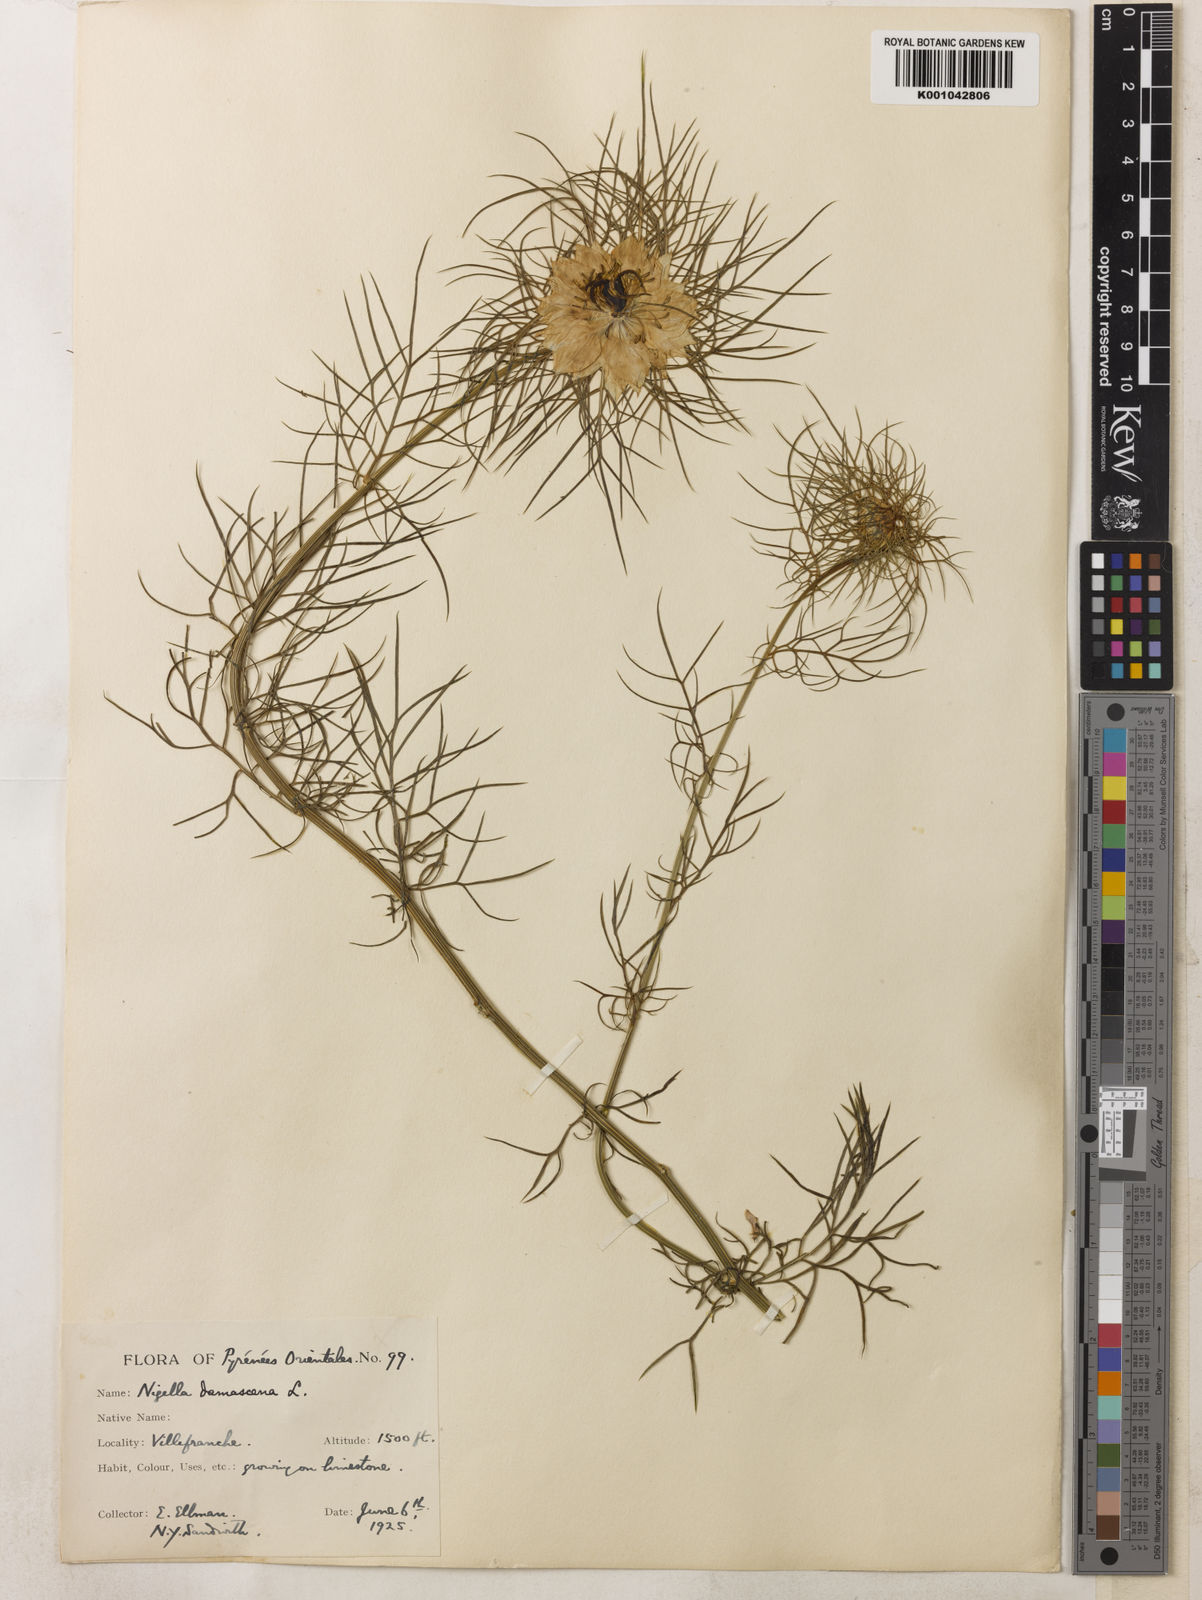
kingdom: Plantae
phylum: Tracheophyta
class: Magnoliopsida
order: Ranunculales
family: Ranunculaceae
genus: Nigella
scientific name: Nigella damascena
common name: Love-in-a-mist
